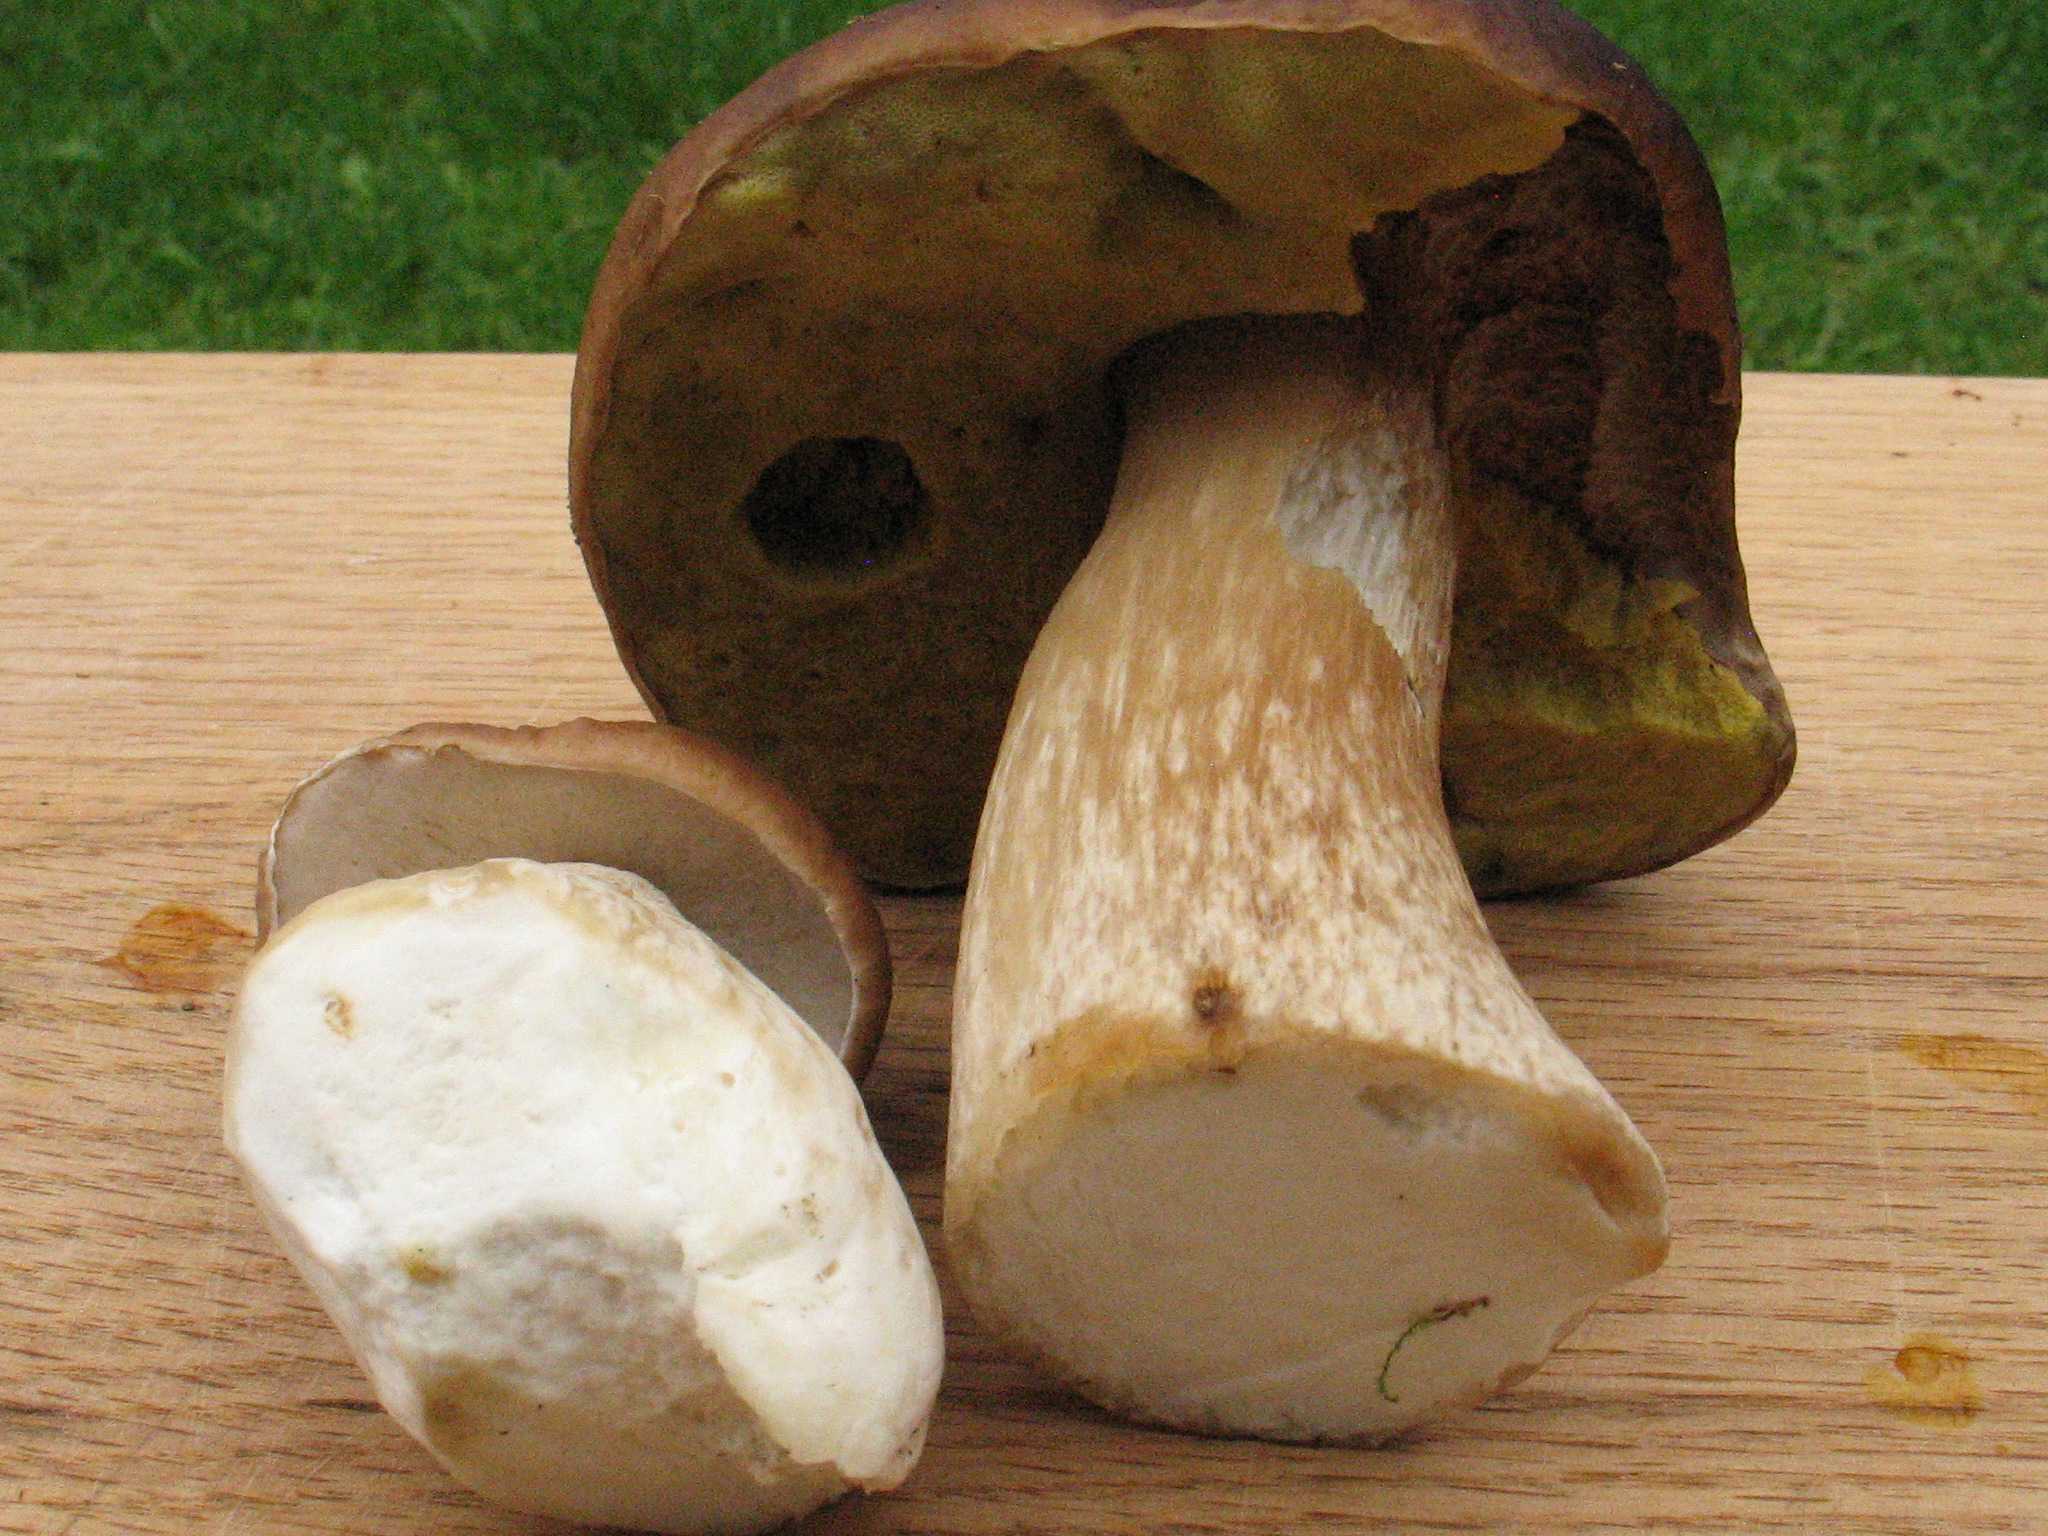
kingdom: Fungi
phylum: Basidiomycota
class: Agaricomycetes
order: Boletales
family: Boletaceae
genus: Boletus
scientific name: Boletus edulis
